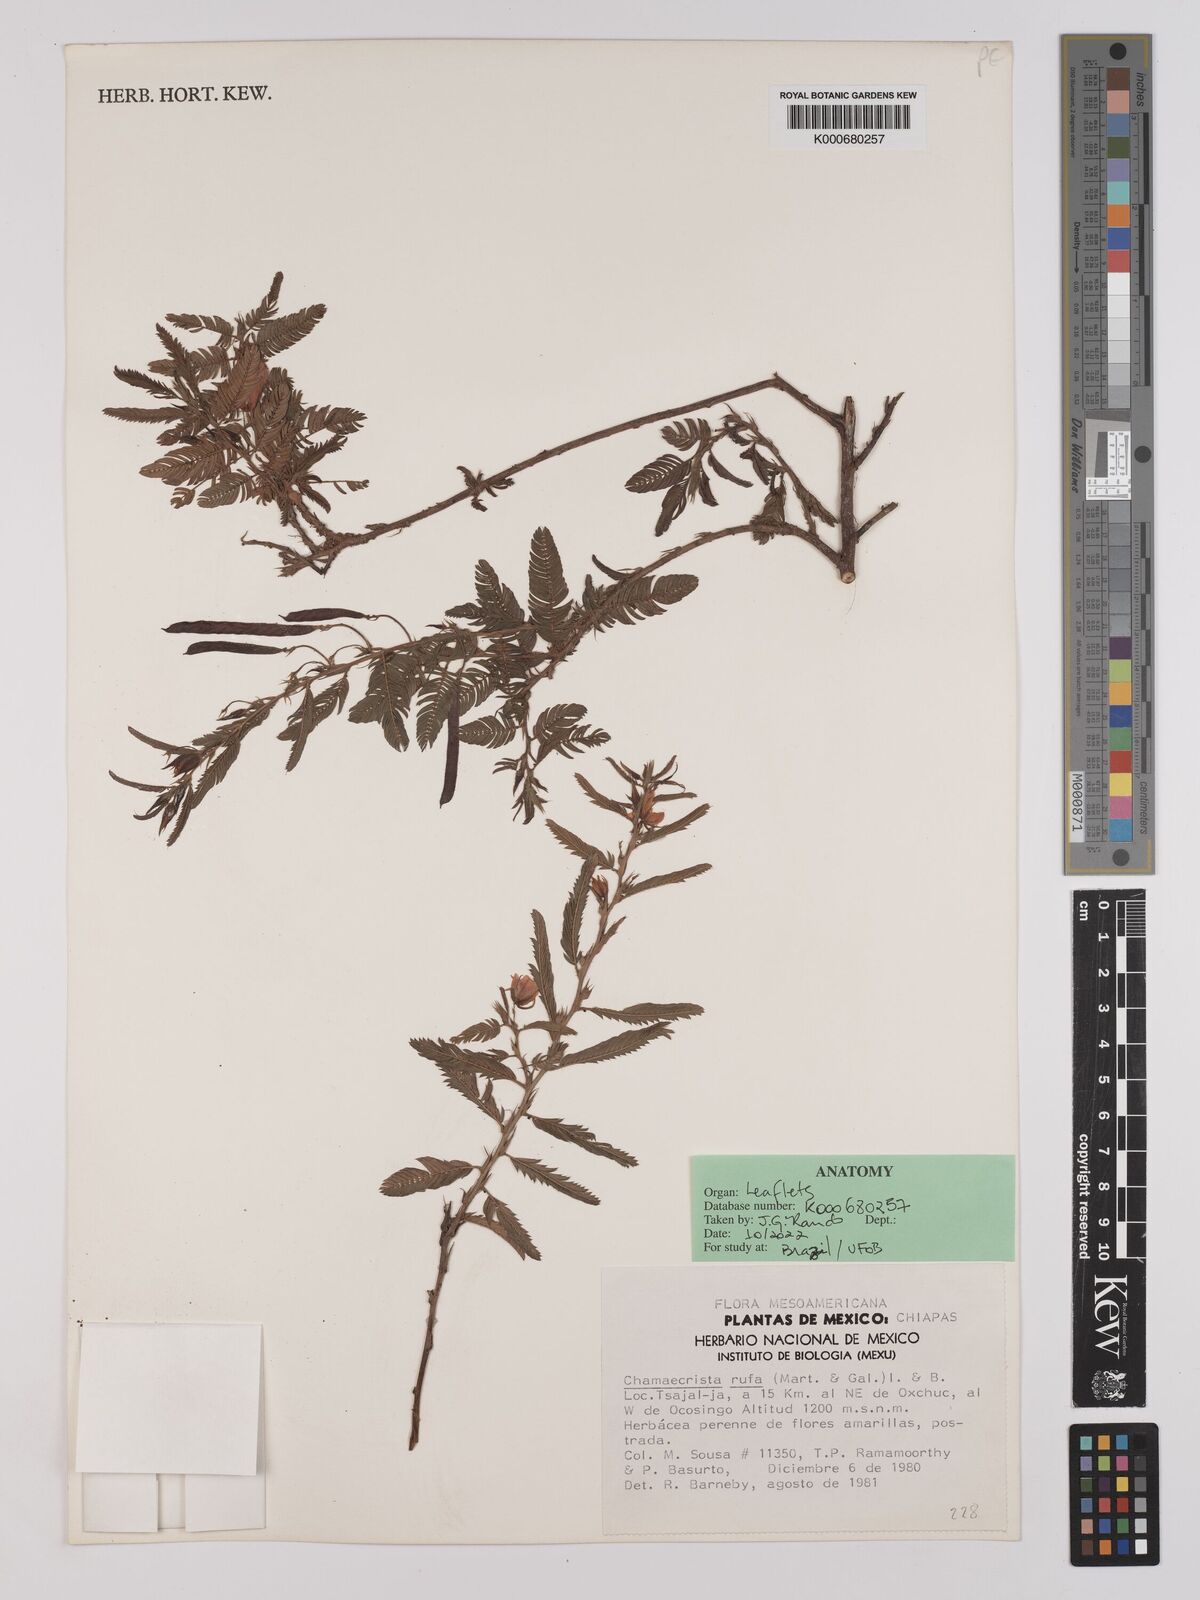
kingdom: Plantae
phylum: Tracheophyta
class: Magnoliopsida
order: Fabales
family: Fabaceae
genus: Chamaecrista
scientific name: Chamaecrista rufa
